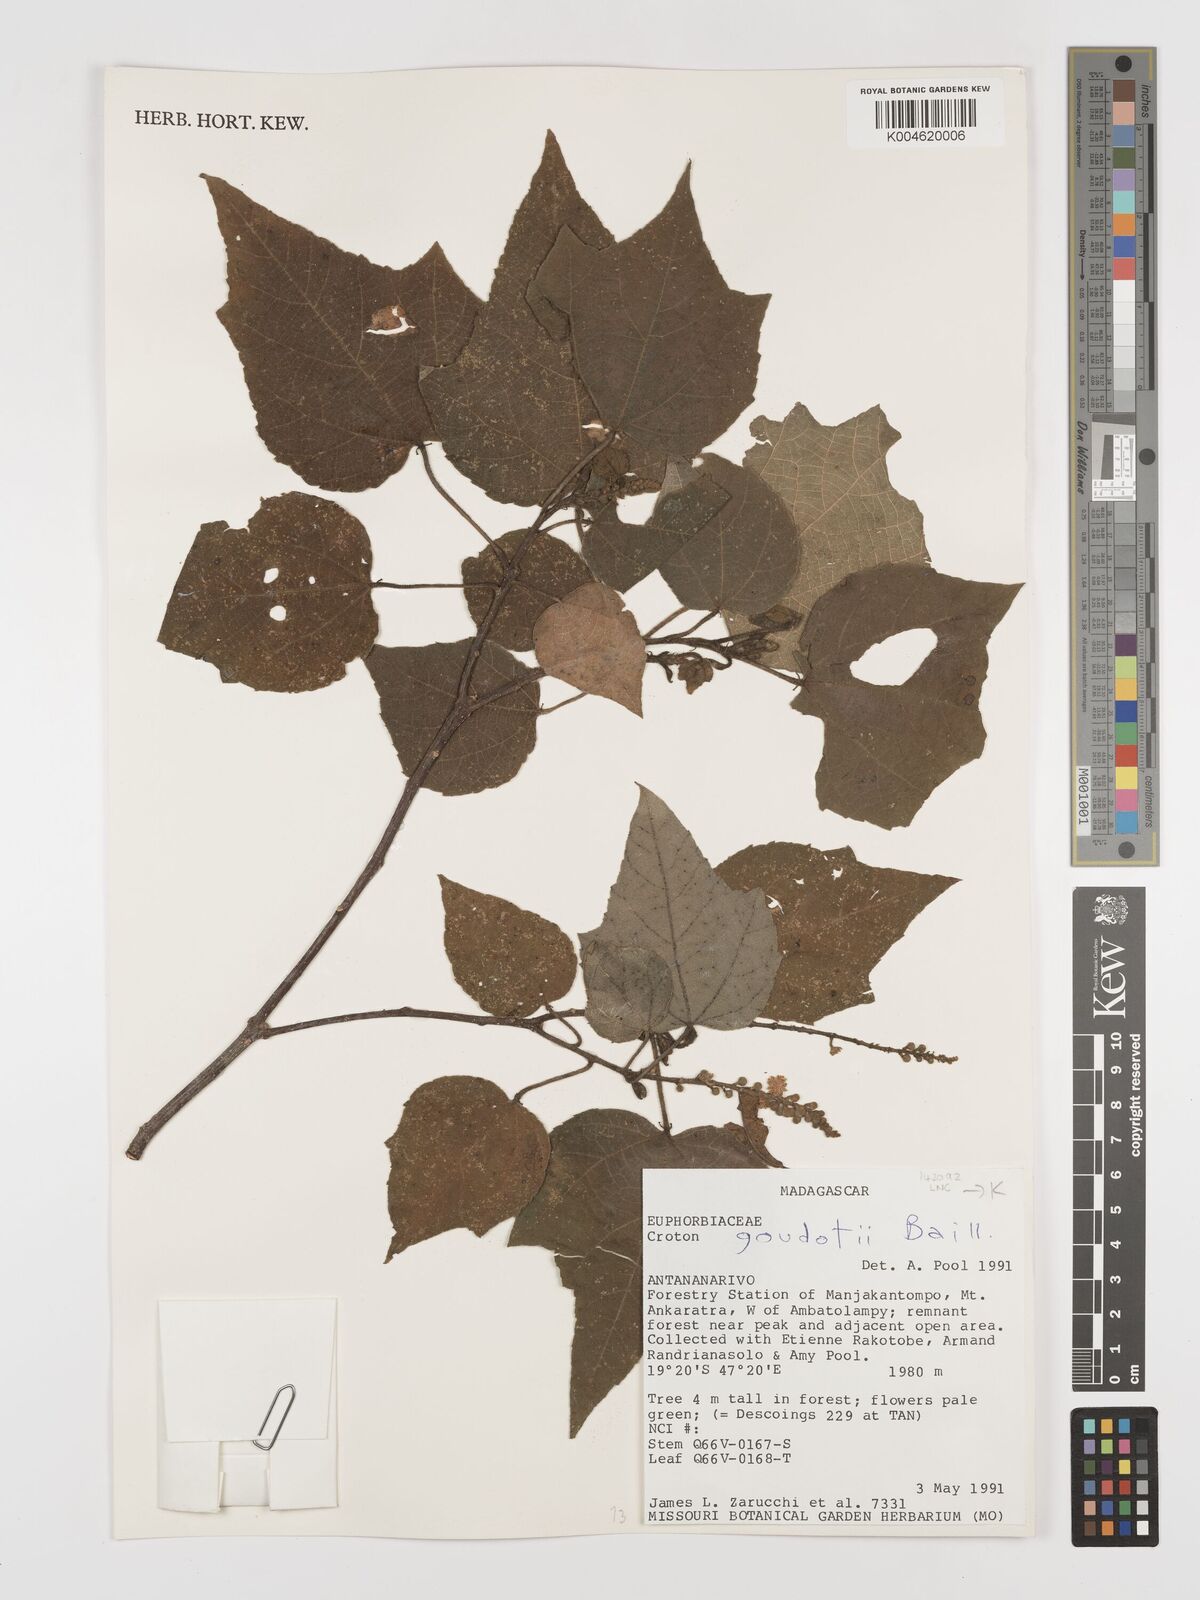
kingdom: Plantae
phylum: Tracheophyta
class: Magnoliopsida
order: Malpighiales
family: Euphorbiaceae
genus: Croton
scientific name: Croton goudotii
